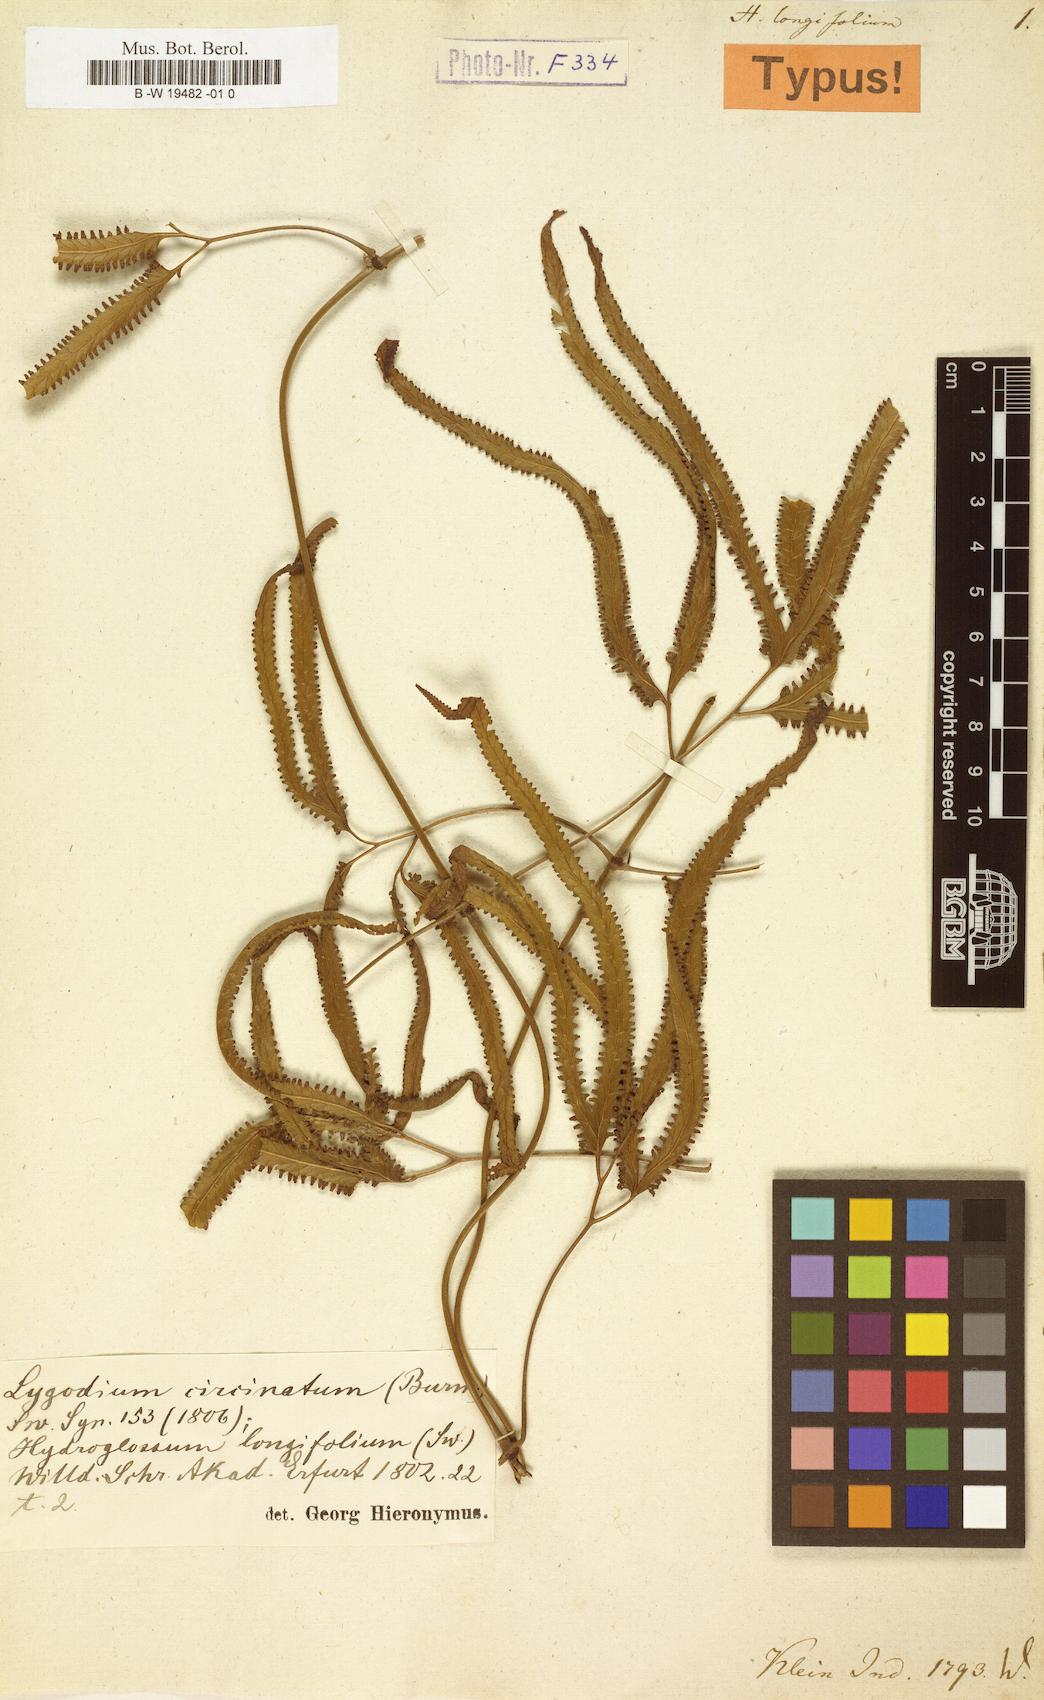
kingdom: Plantae
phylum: Tracheophyta
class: Polypodiopsida
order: Schizaeales
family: Lygodiaceae
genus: Lygodium
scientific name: Lygodium longifolium
